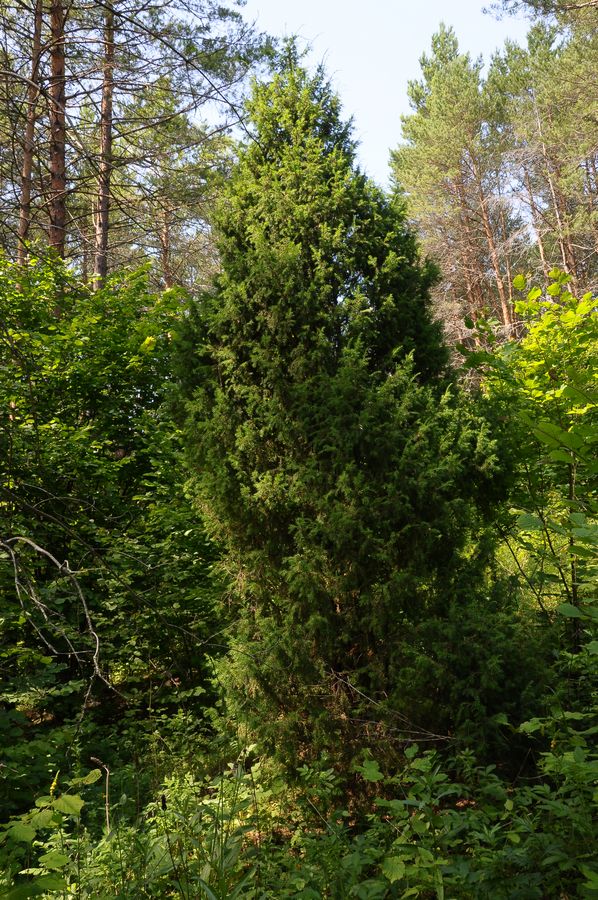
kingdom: Plantae
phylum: Tracheophyta
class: Pinopsida
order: Pinales
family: Cupressaceae
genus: Juniperus
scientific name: Juniperus communis
